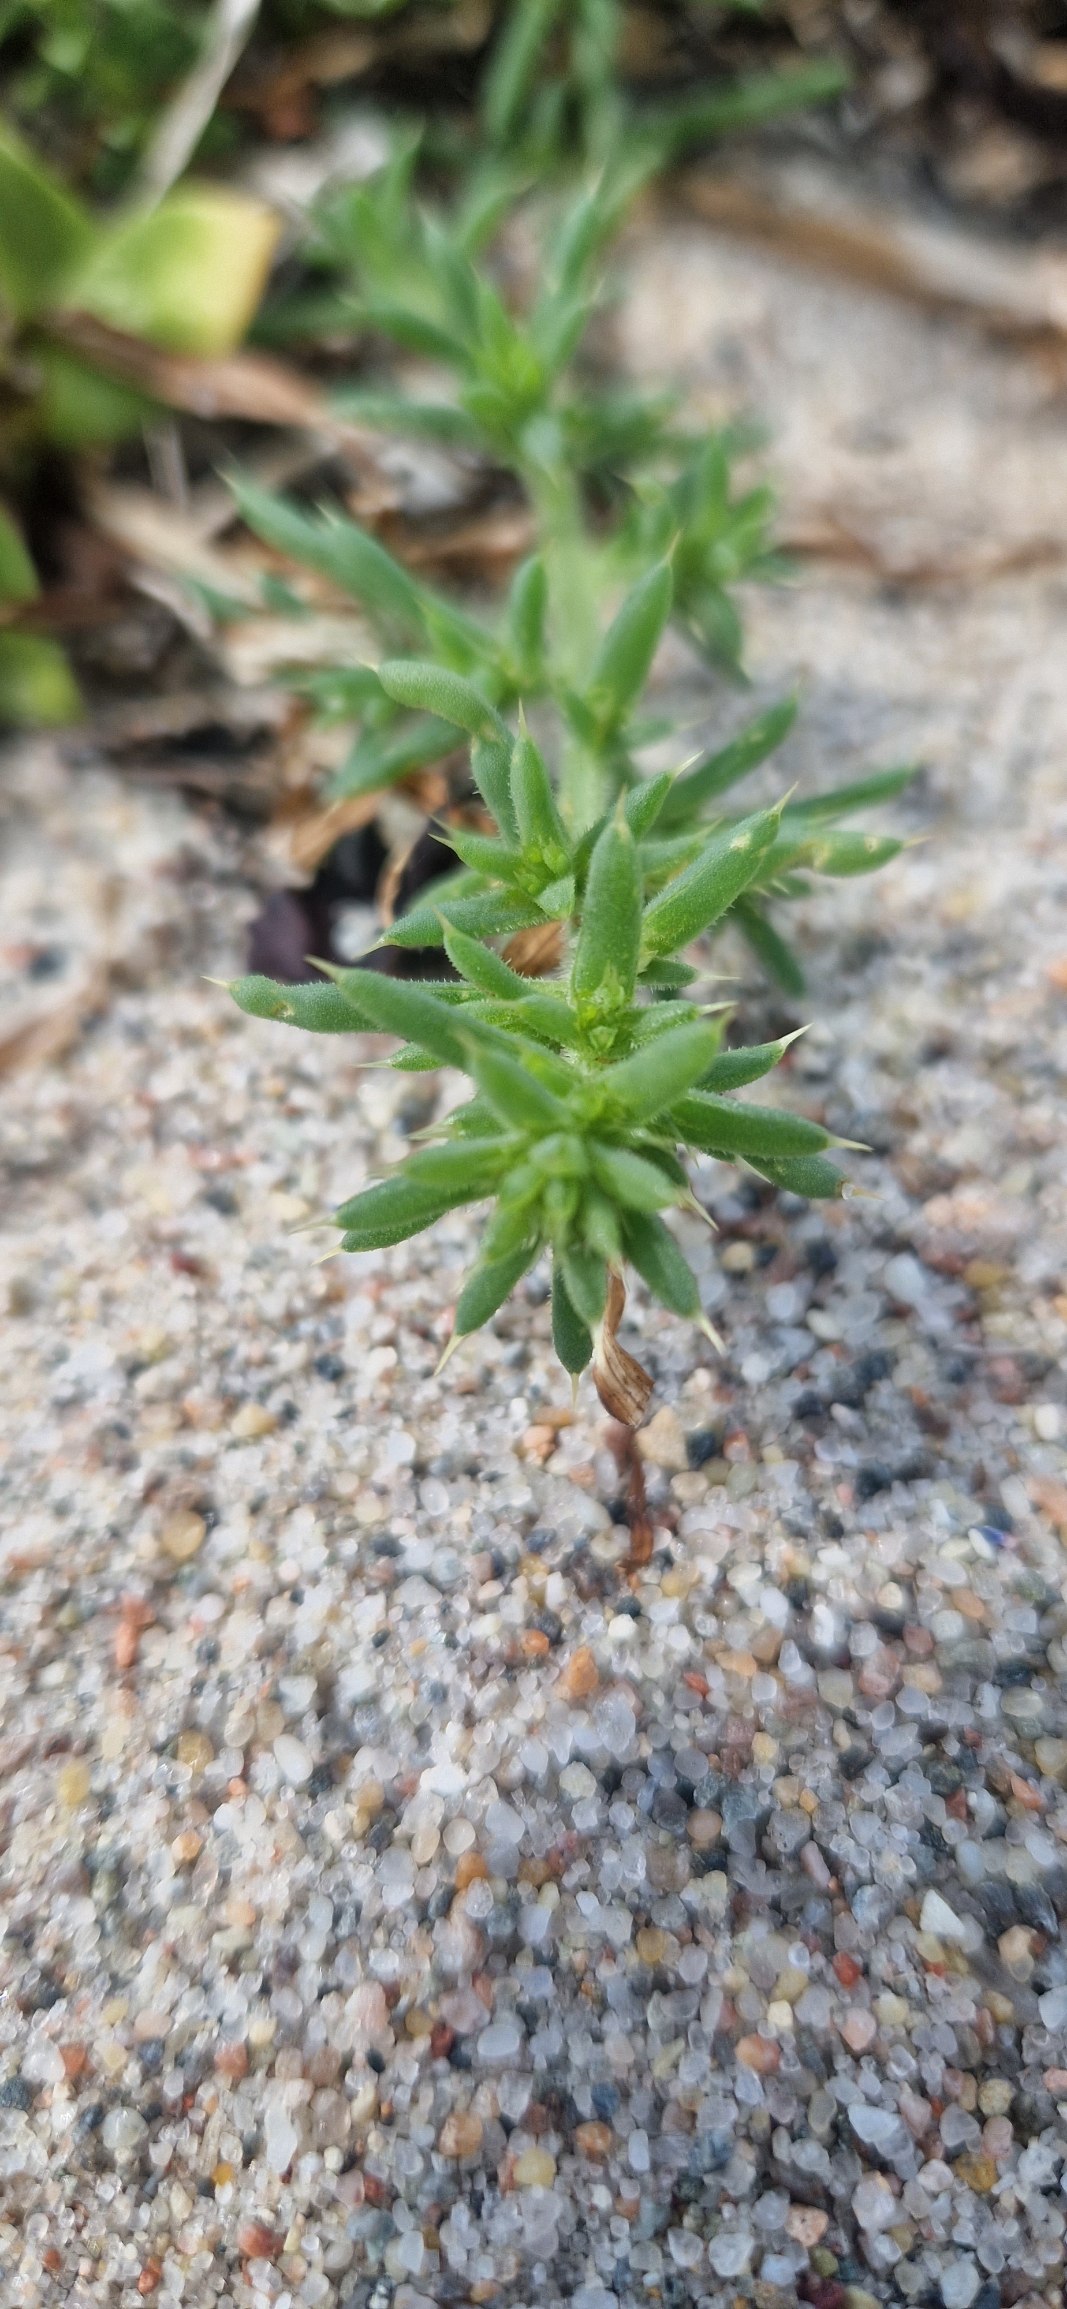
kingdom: Plantae
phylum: Tracheophyta
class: Magnoliopsida
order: Caryophyllales
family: Amaranthaceae
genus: Salsola
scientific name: Salsola kali
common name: Sodaurt
